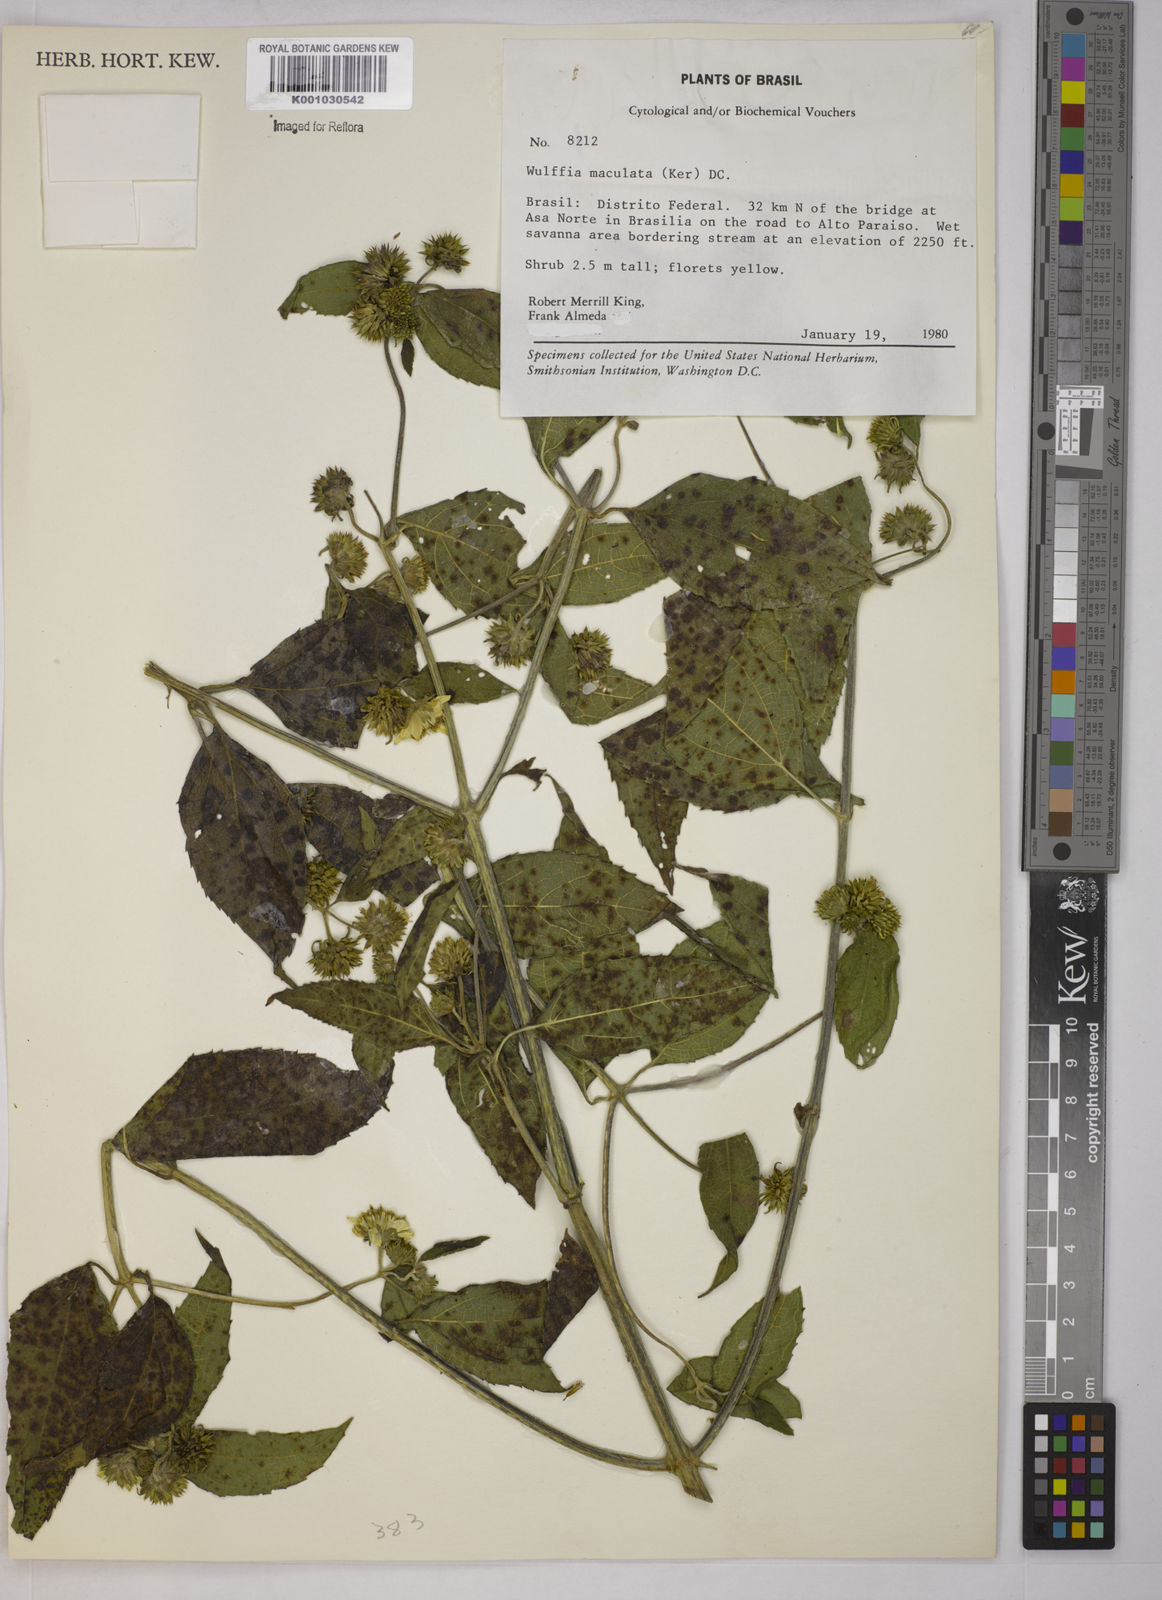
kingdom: Plantae
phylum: Tracheophyta
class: Magnoliopsida
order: Asterales
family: Asteraceae
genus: Tilesia
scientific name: Tilesia baccata
